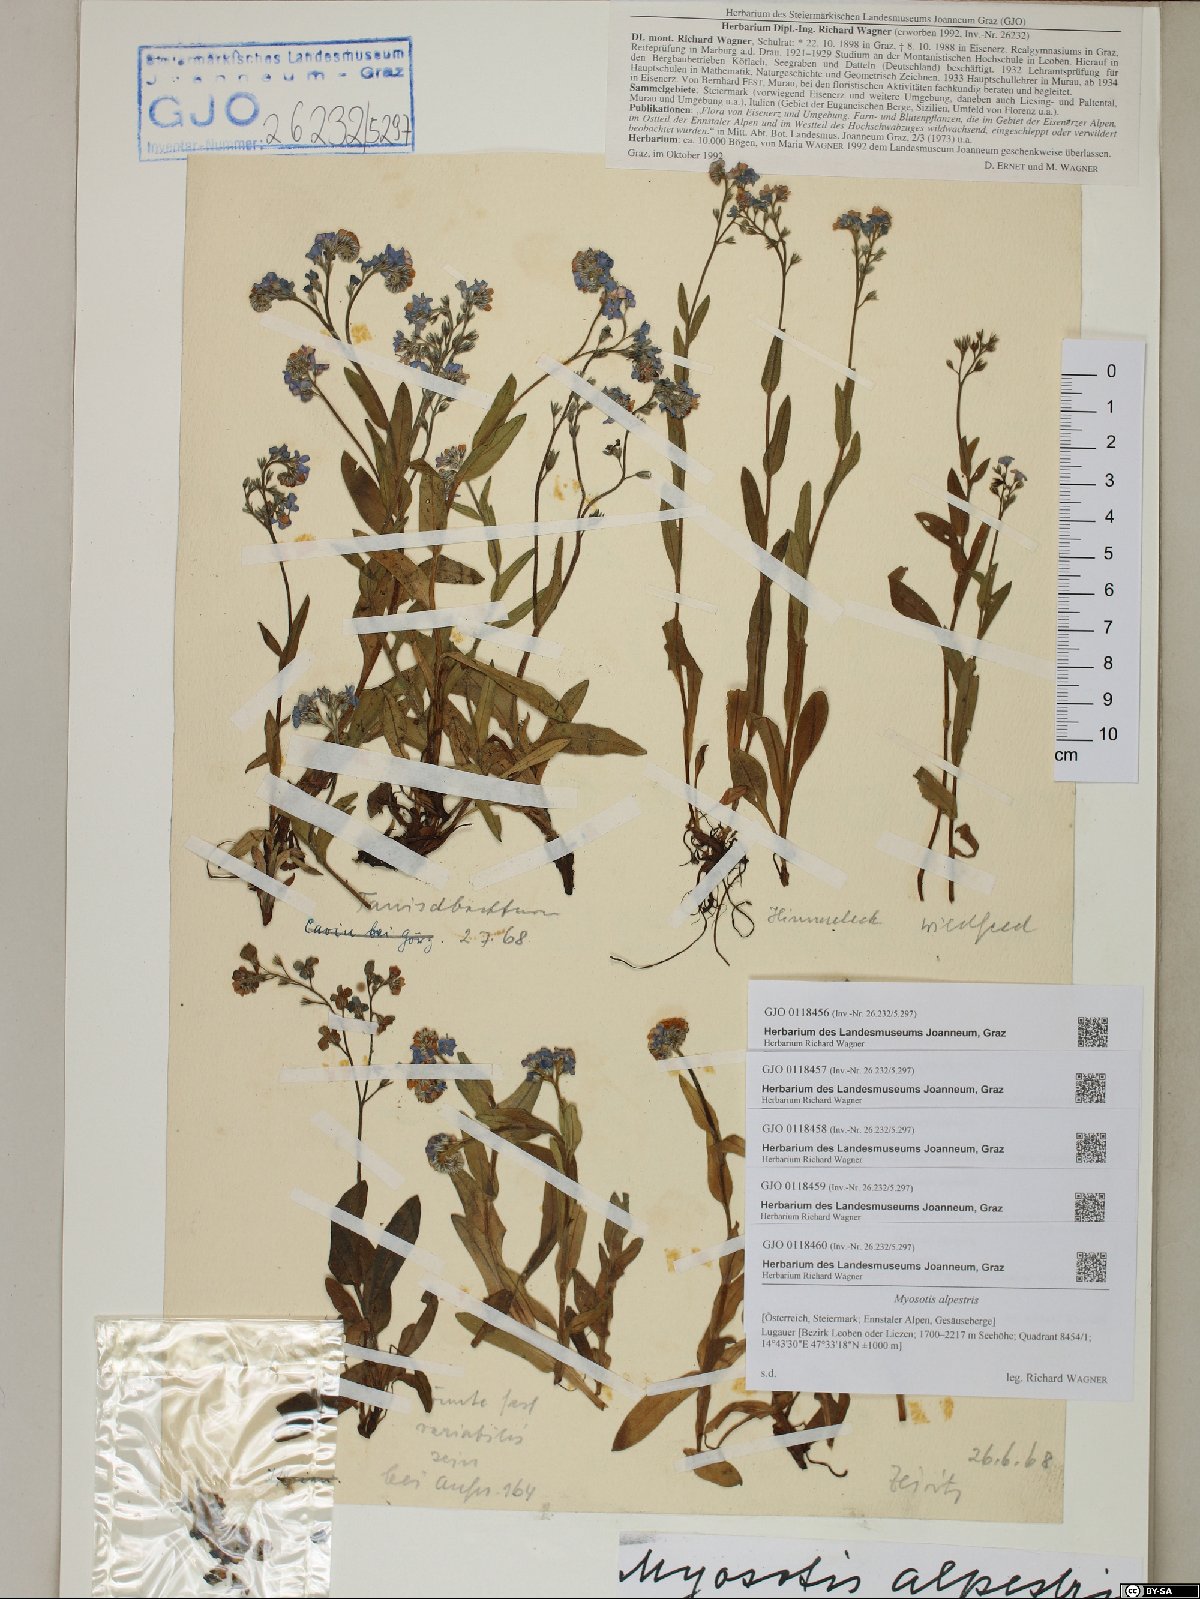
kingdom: Plantae
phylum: Tracheophyta
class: Magnoliopsida
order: Boraginales
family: Boraginaceae
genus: Myosotis
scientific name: Myosotis alpestris
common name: Alpine forget-me-not
